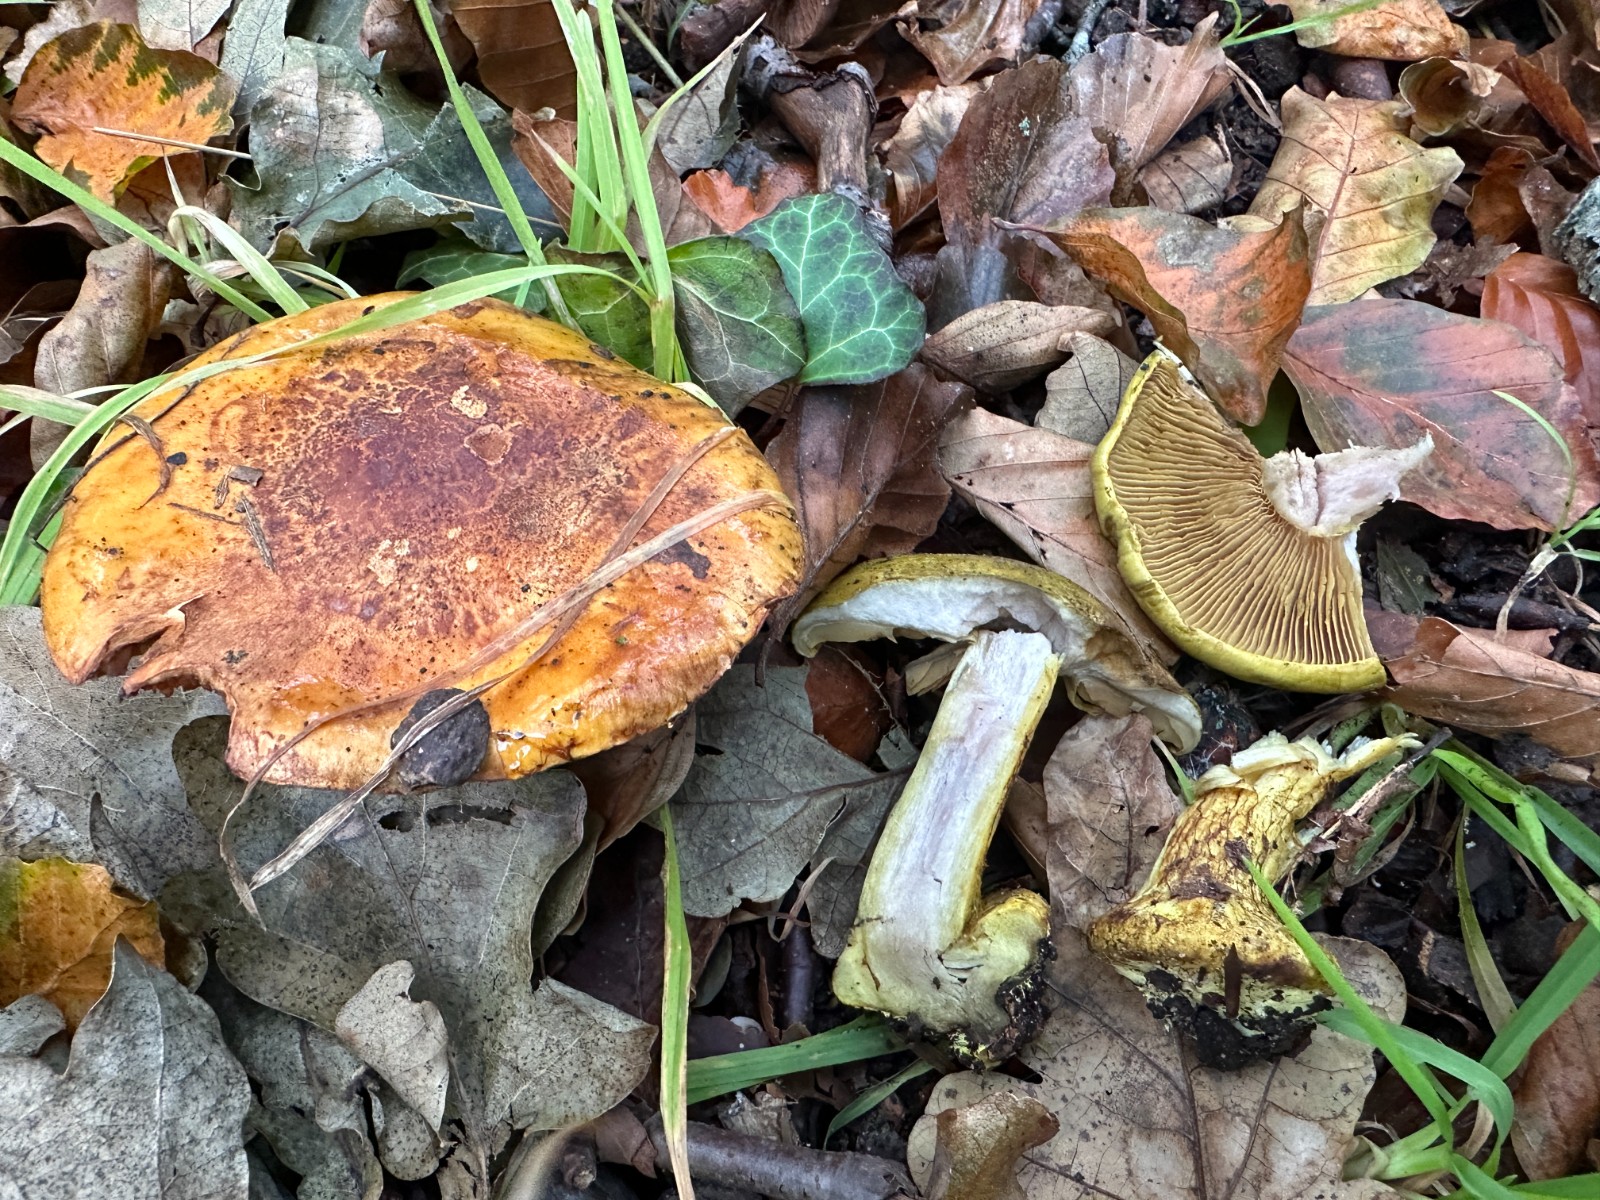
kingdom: Fungi
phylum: Basidiomycota
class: Agaricomycetes
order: Agaricales
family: Cortinariaceae
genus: Calonarius
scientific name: Calonarius odoratus
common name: krydret slørhat
